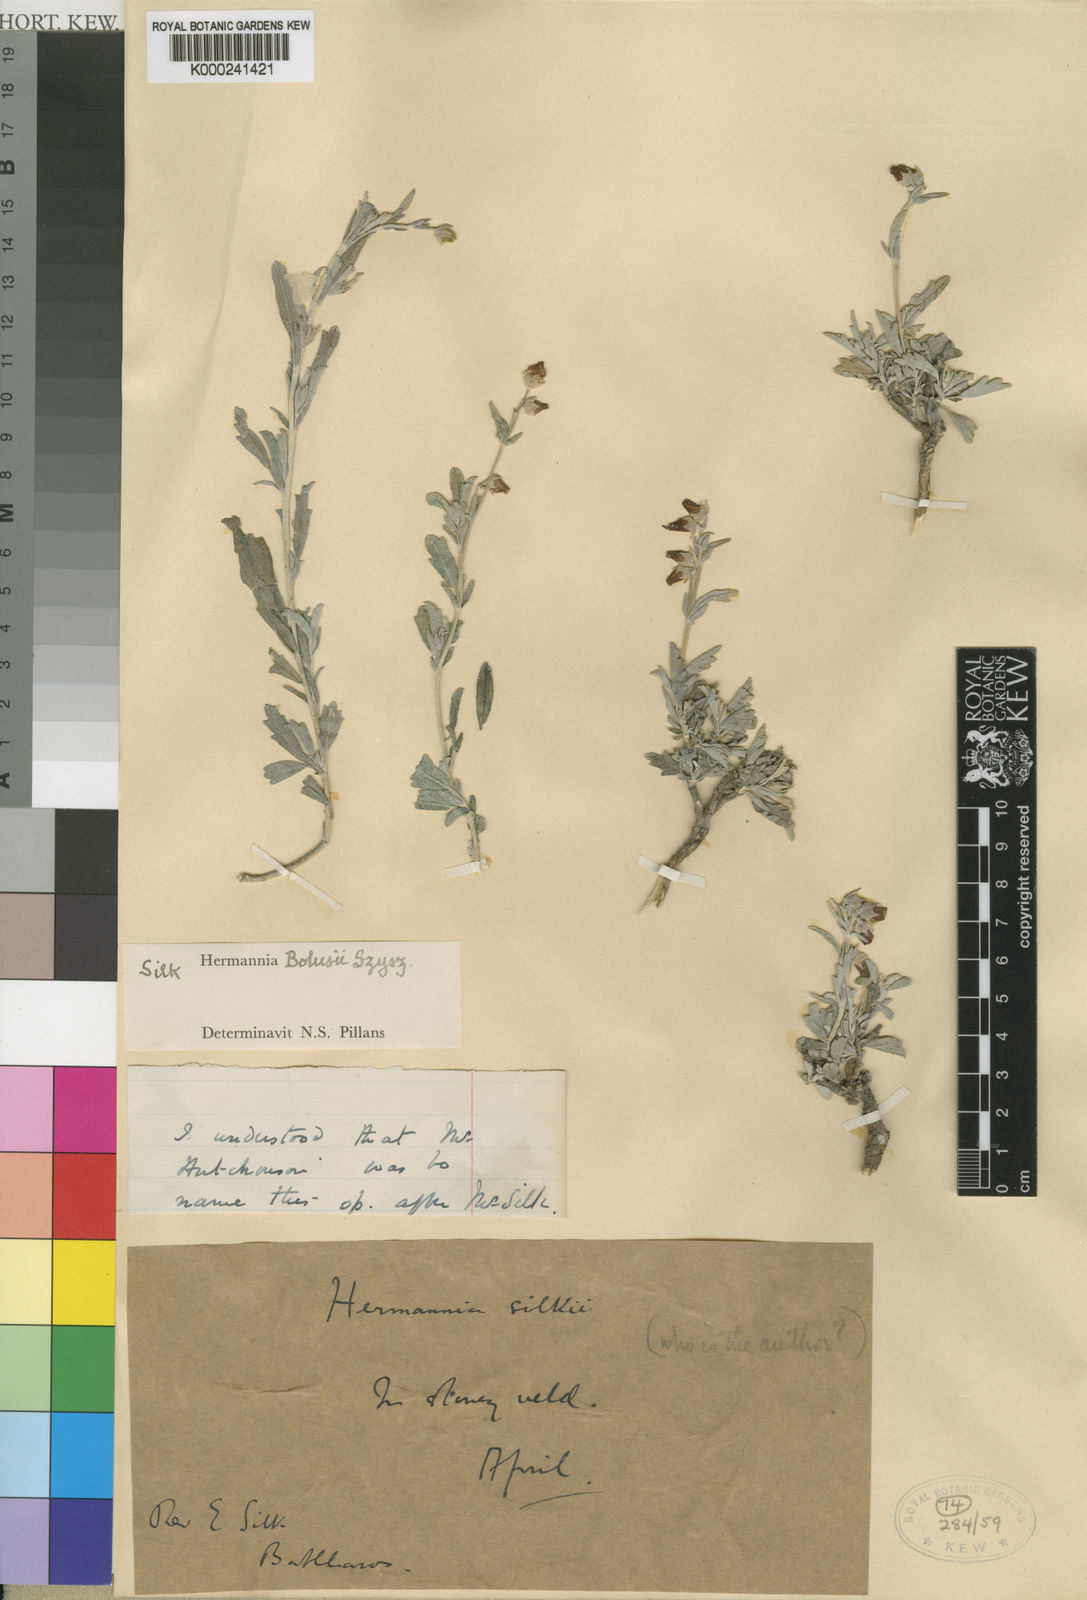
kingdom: Plantae
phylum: Tracheophyta
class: Magnoliopsida
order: Malvales
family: Malvaceae
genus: Hermannia
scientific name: Hermannia pulverata
